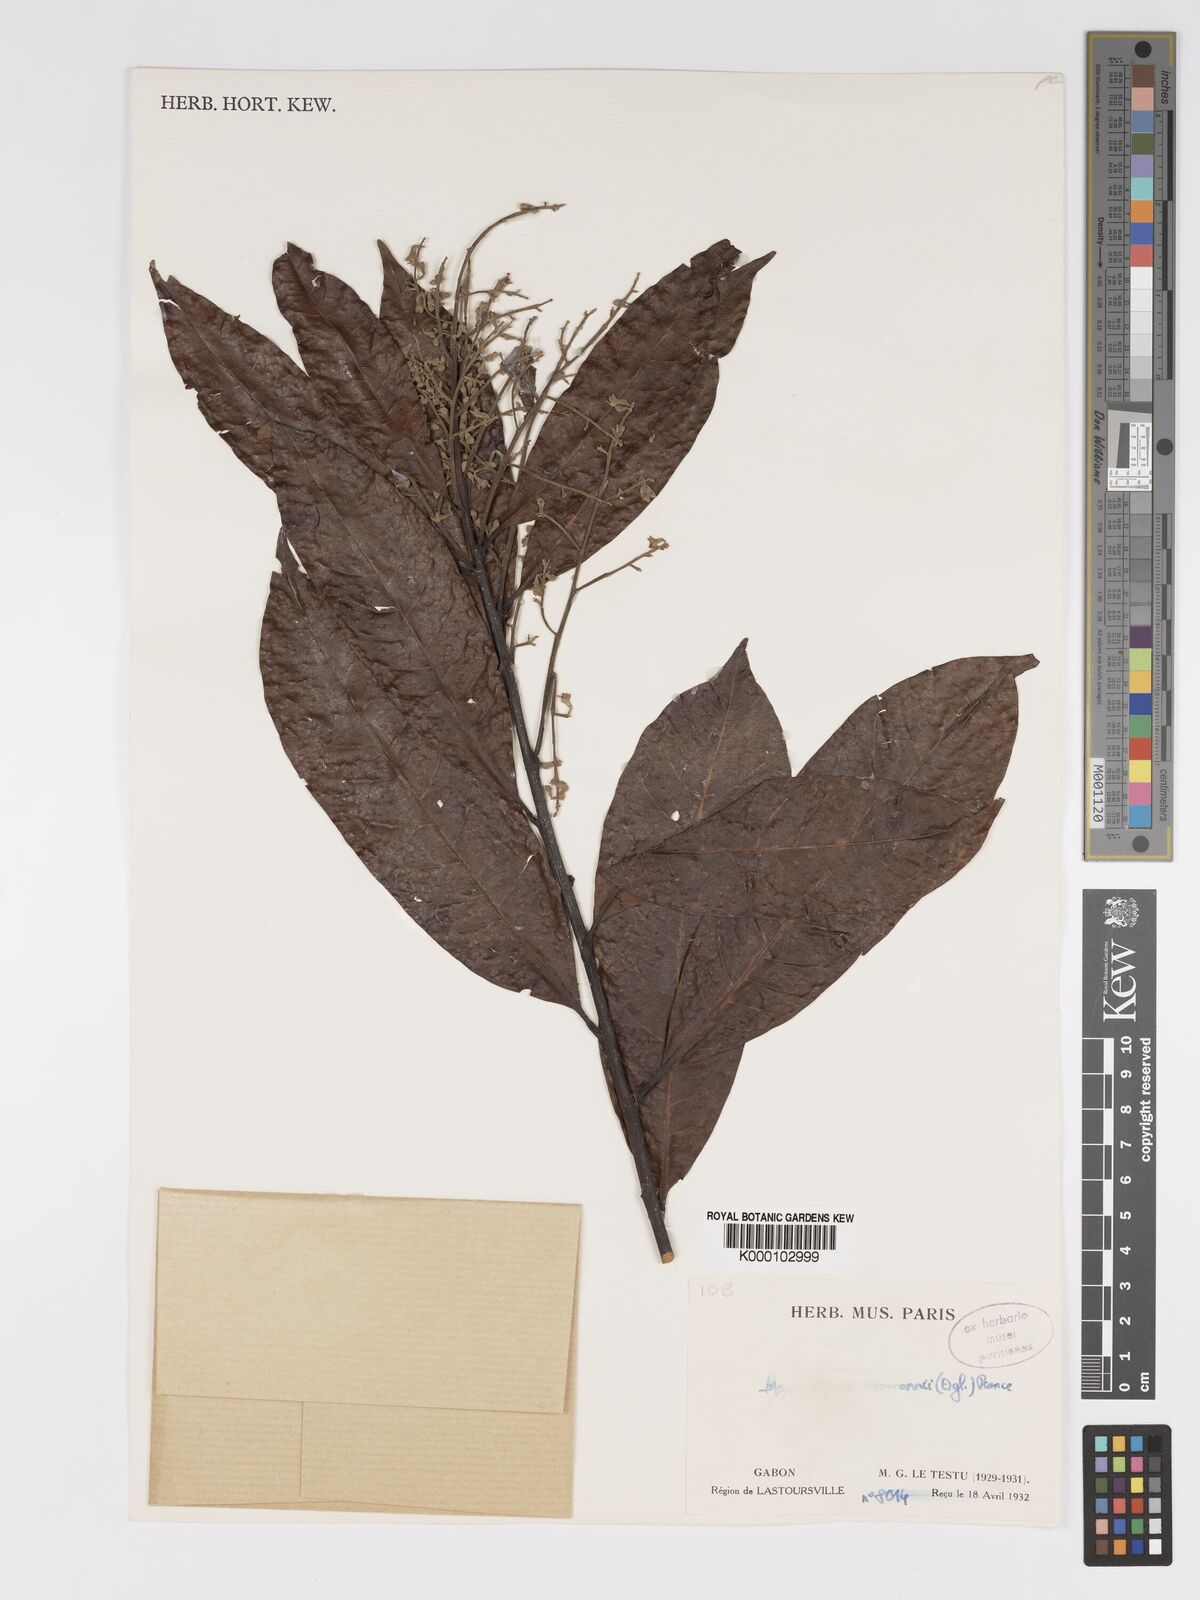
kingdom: Plantae
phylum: Tracheophyta
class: Magnoliopsida
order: Malpighiales
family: Chrysobalanaceae
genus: Magnistipula
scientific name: Magnistipula tessmannii
